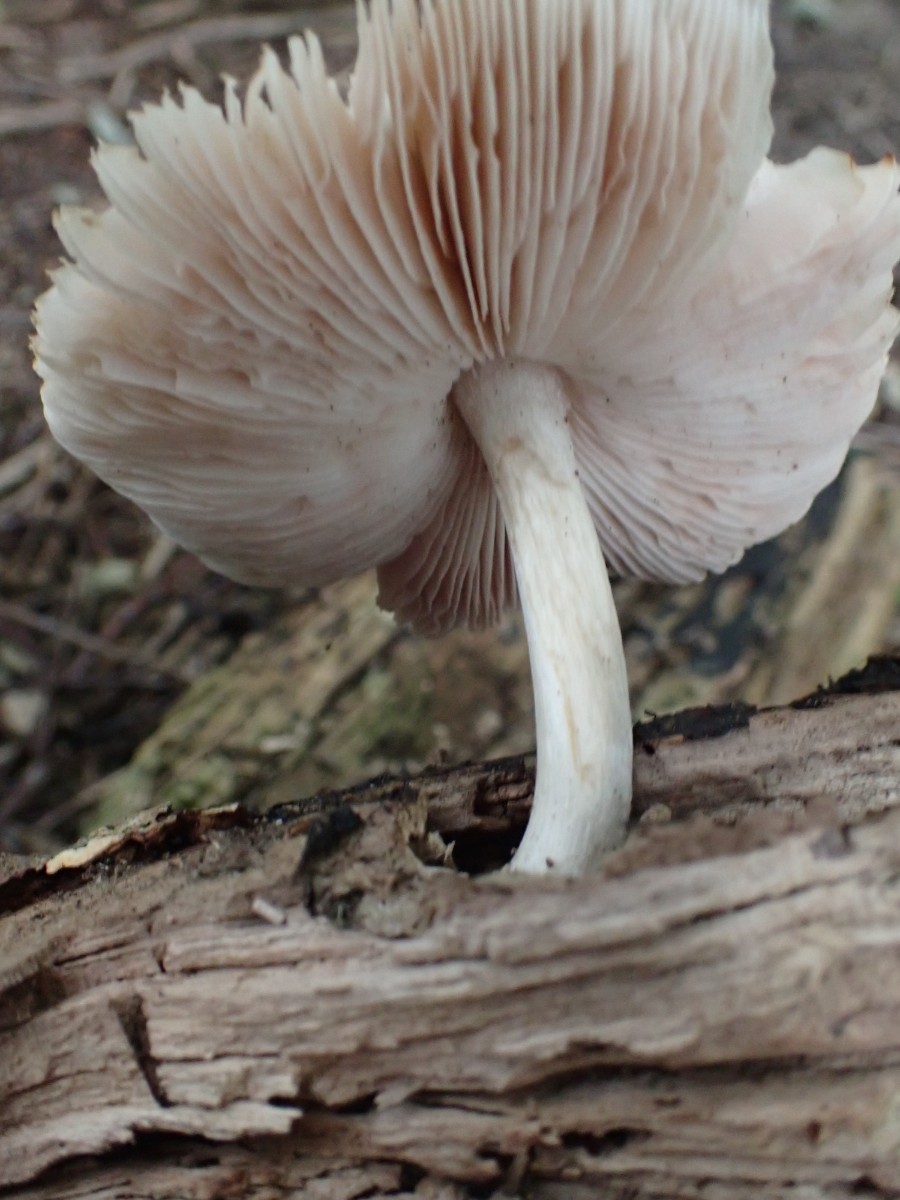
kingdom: Fungi
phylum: Basidiomycota
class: Agaricomycetes
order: Agaricales
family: Pluteaceae
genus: Pluteus
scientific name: Pluteus salicinus
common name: stiv skærmhat
